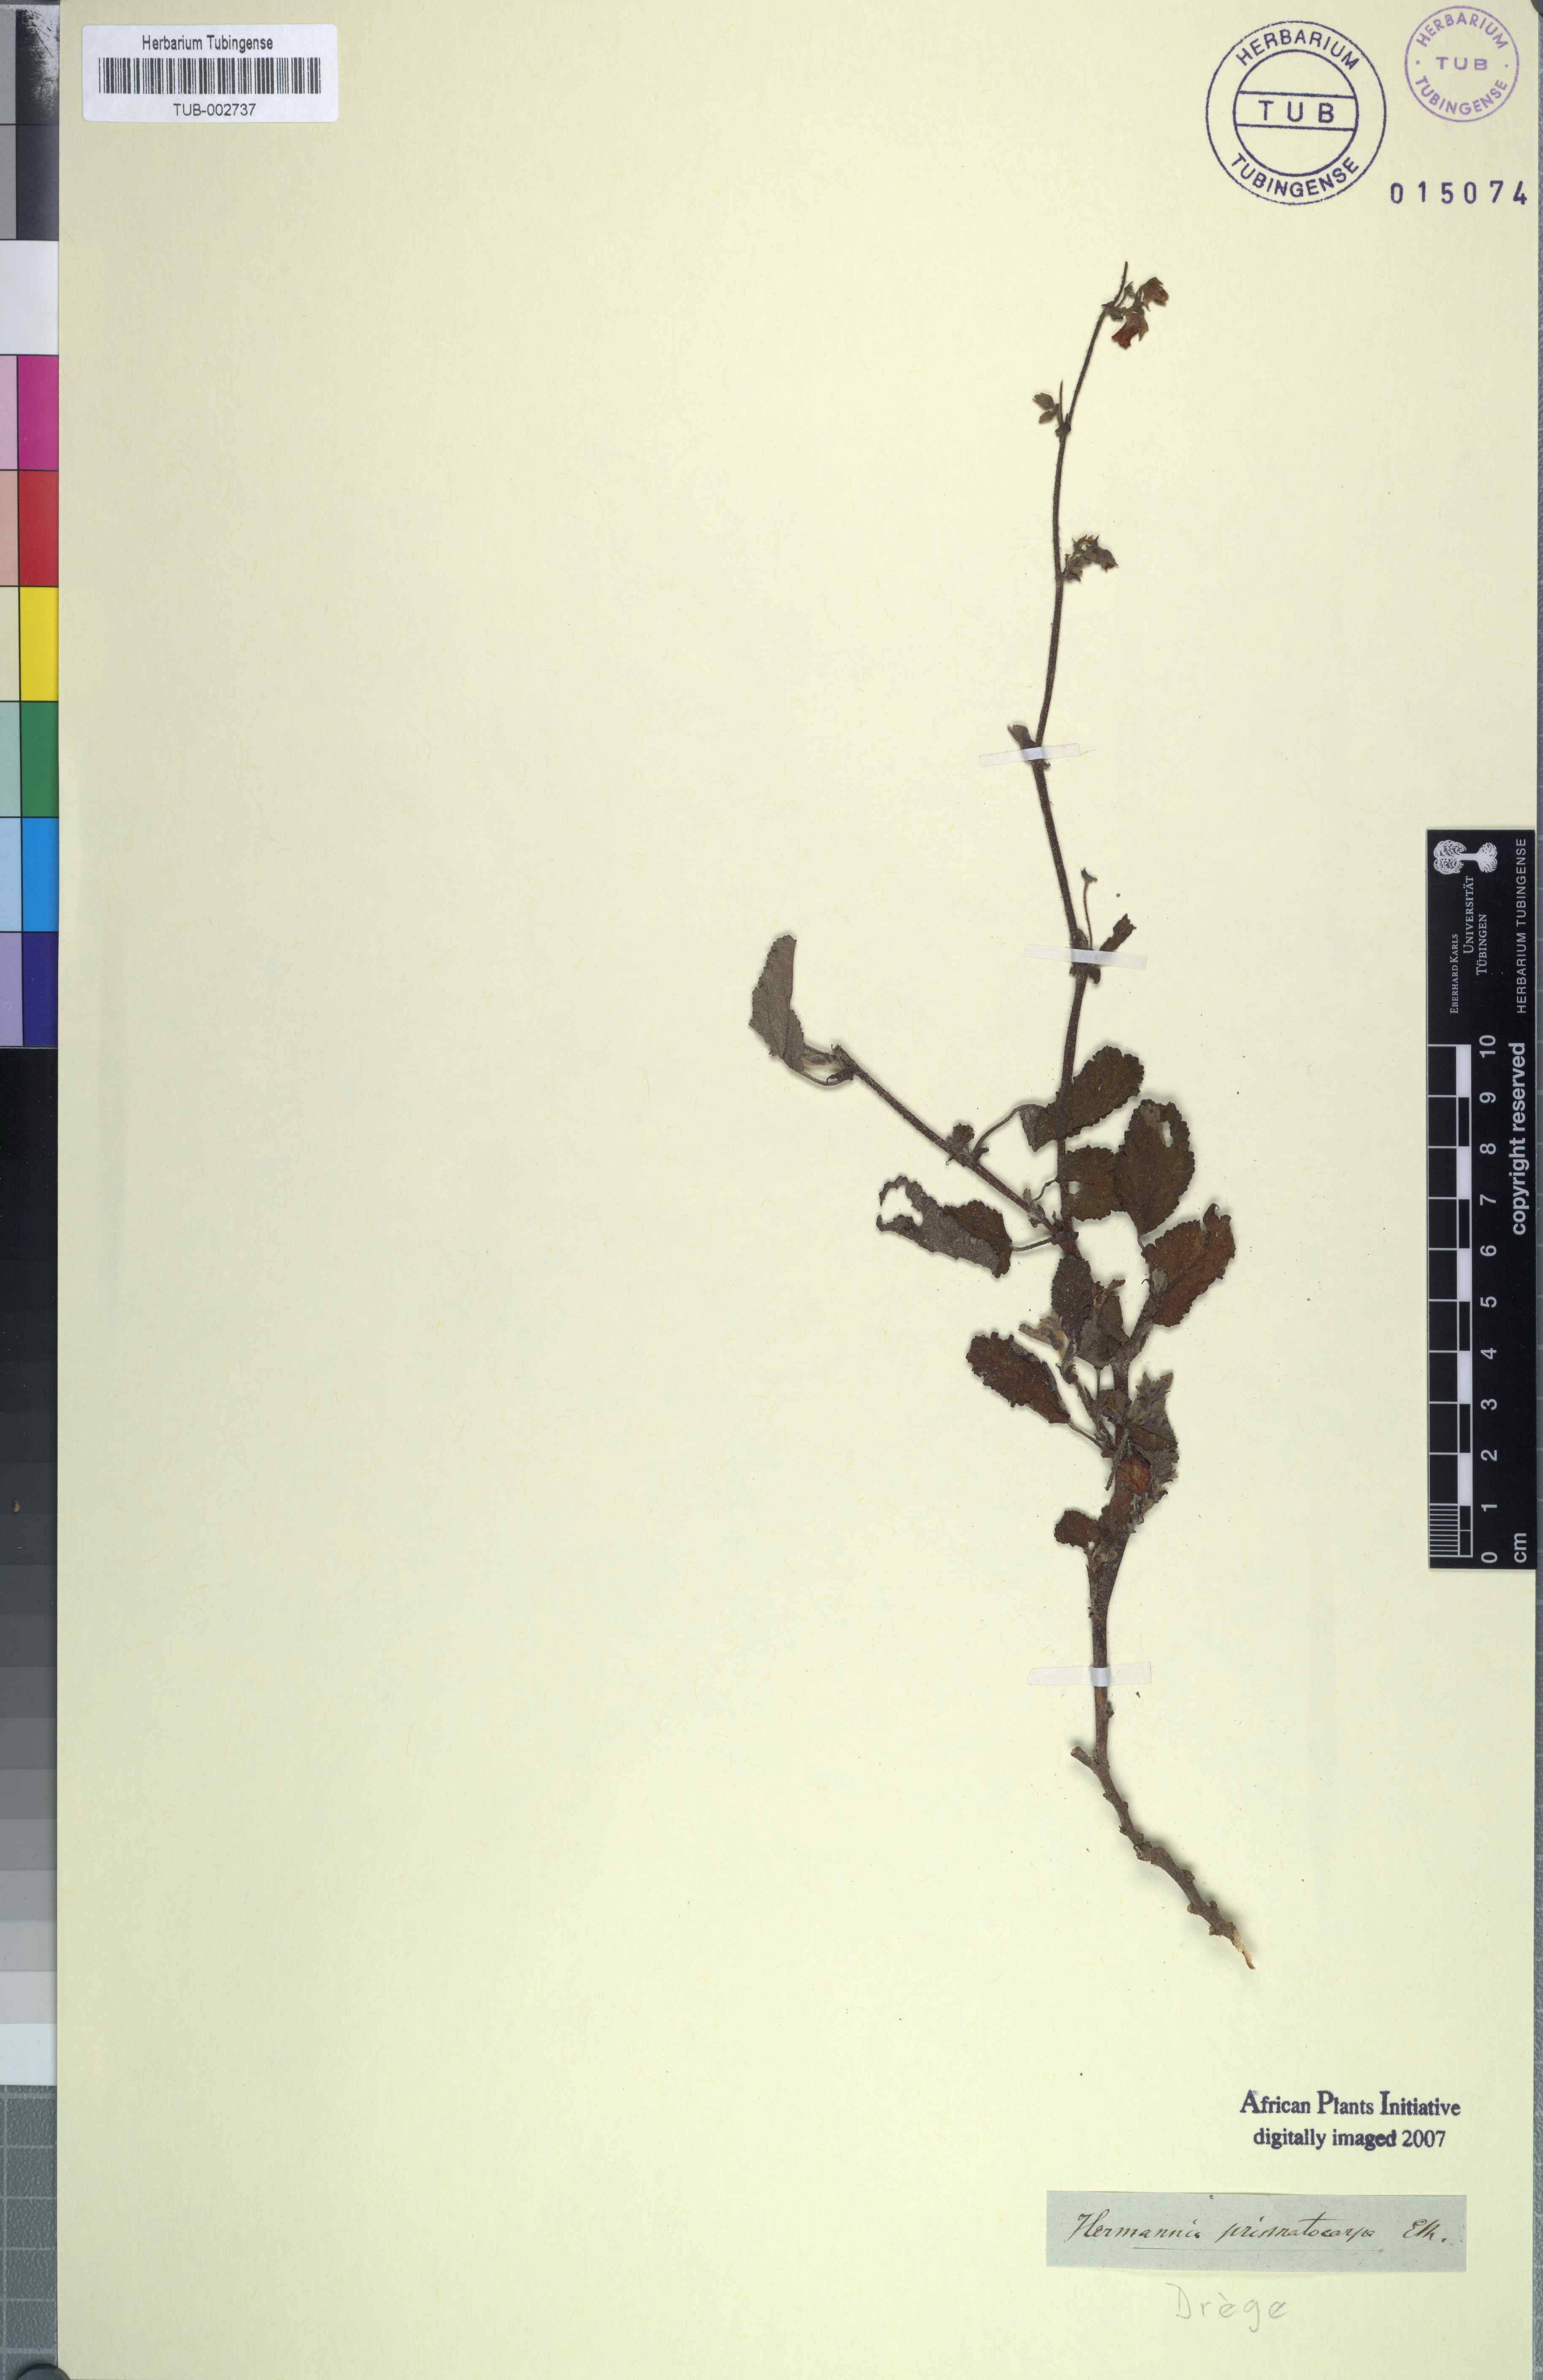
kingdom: Plantae
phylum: Tracheophyta
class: Magnoliopsida
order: Malvales
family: Malvaceae
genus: Hermannia
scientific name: Hermannia prismatocarpa
